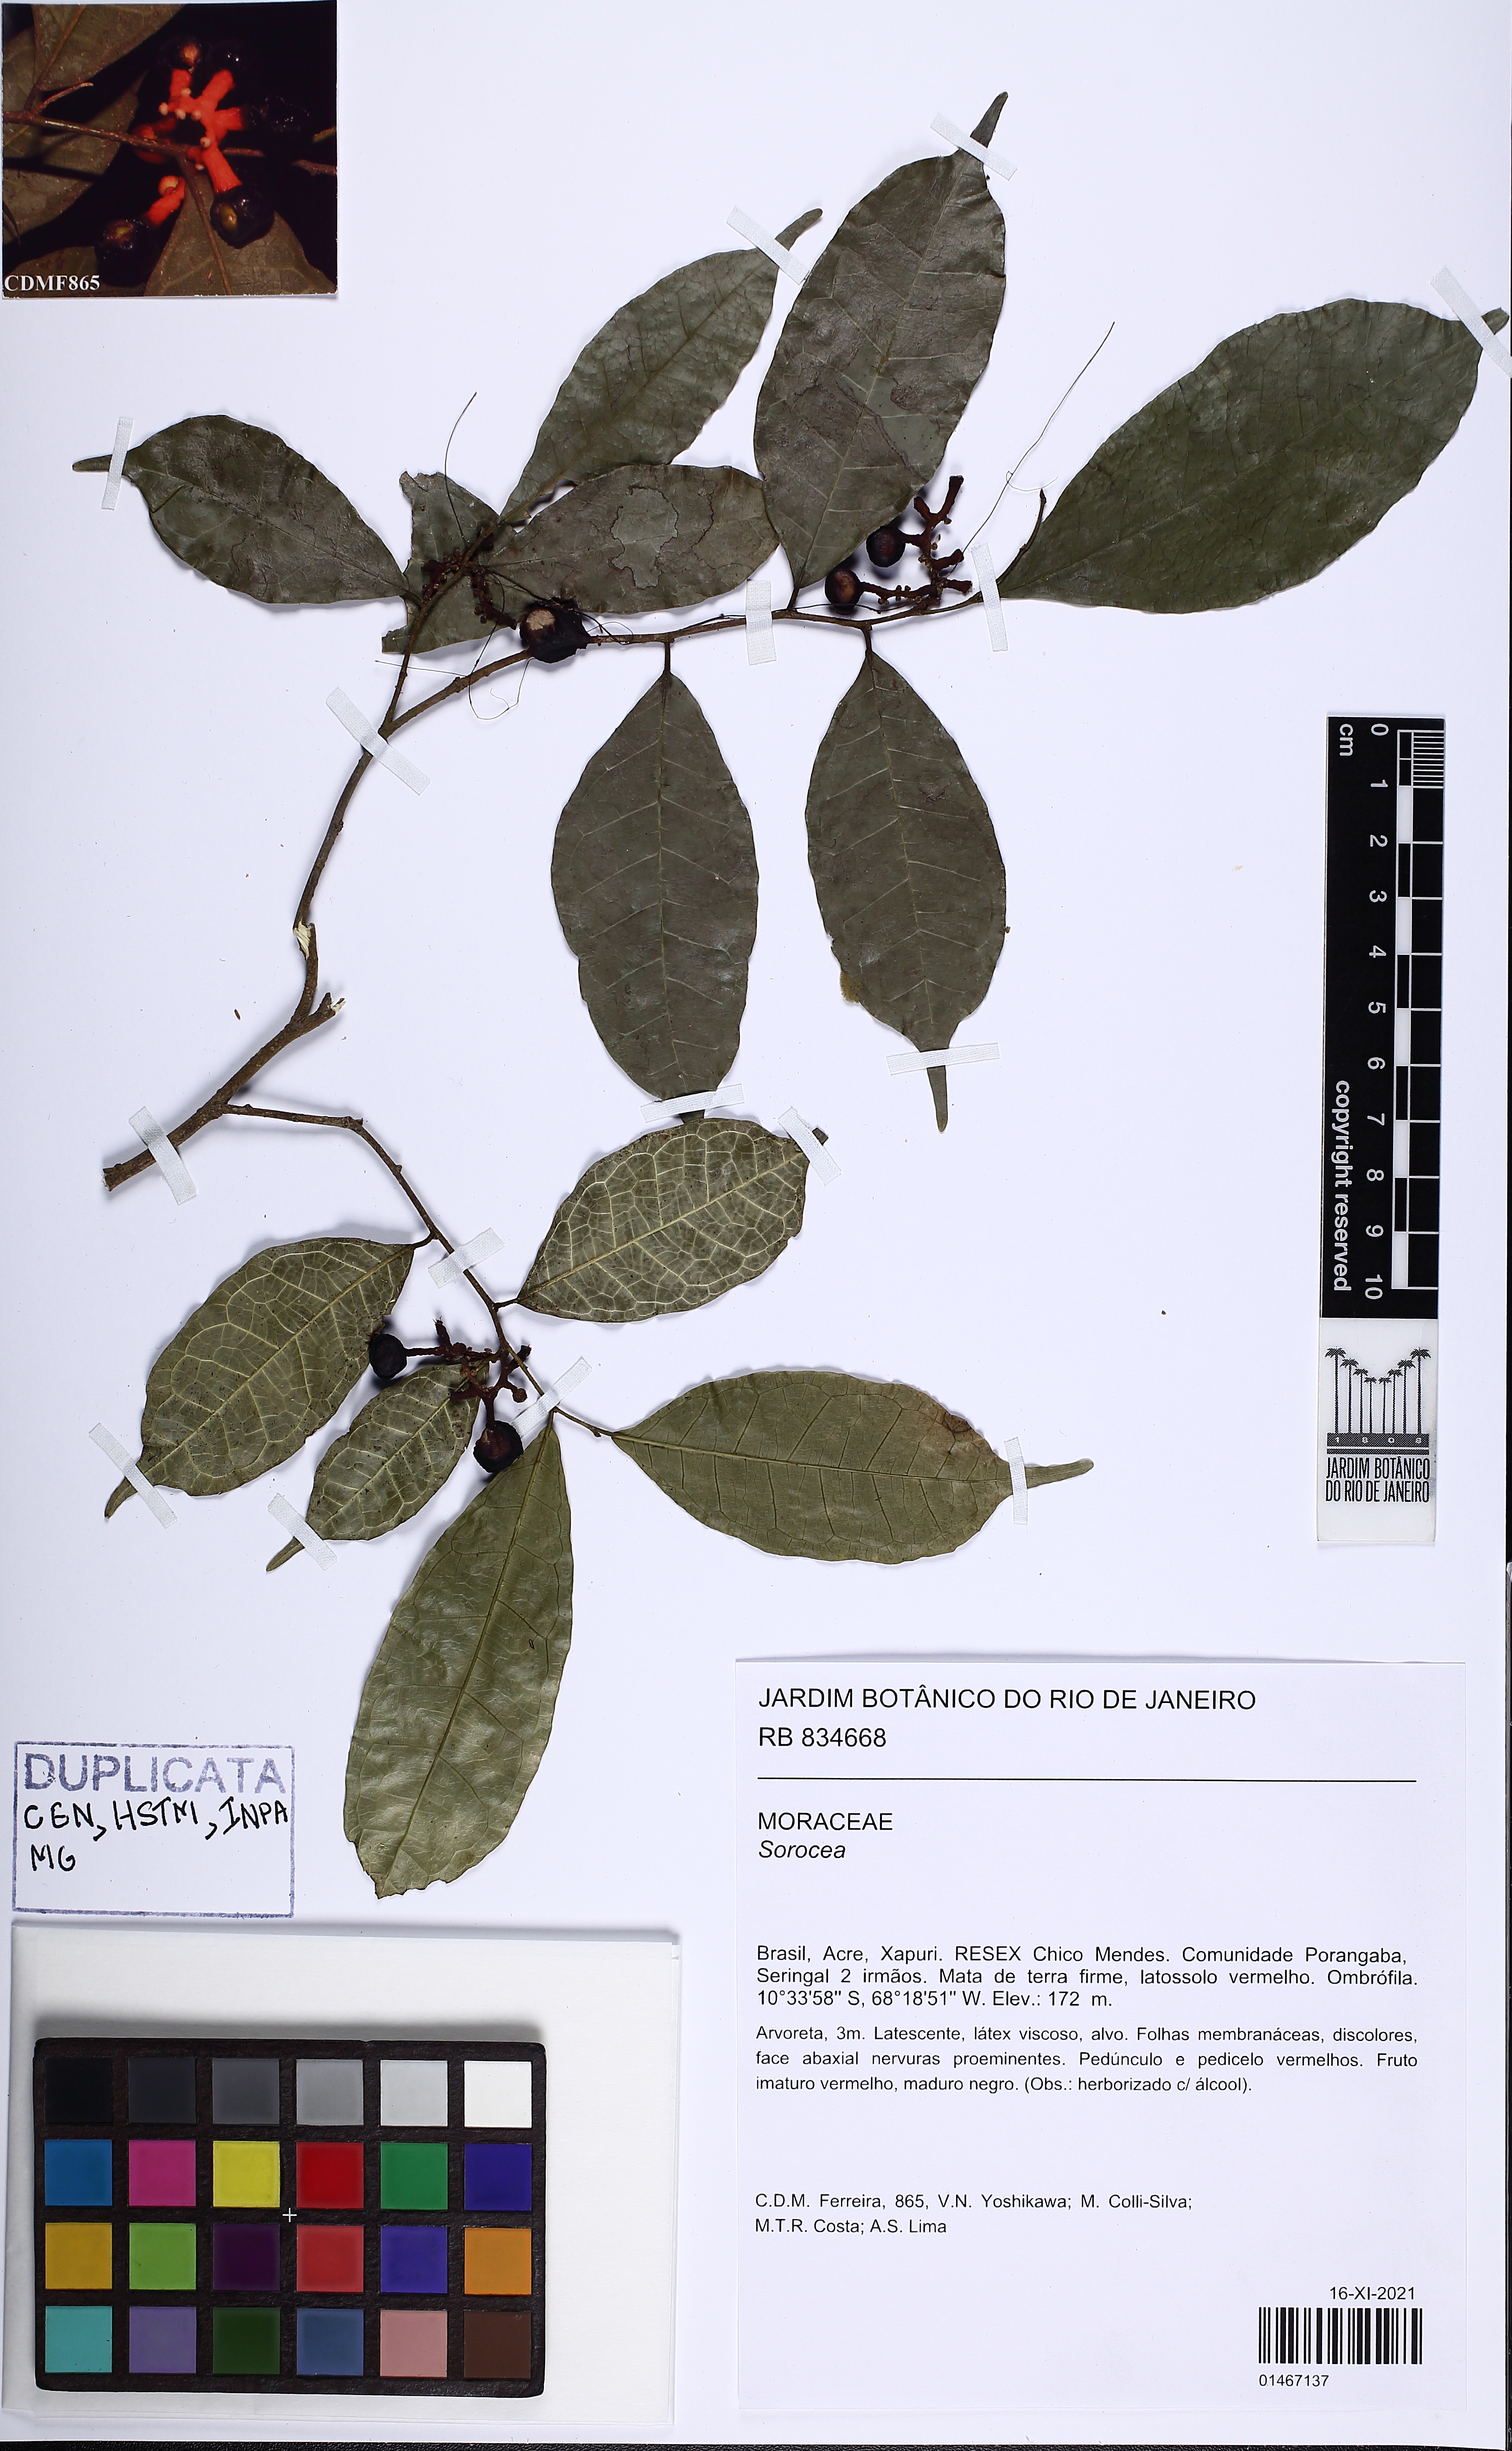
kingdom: Plantae
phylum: Tracheophyta
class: Magnoliopsida
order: Rosales
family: Moraceae
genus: Sorocea
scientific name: Sorocea
